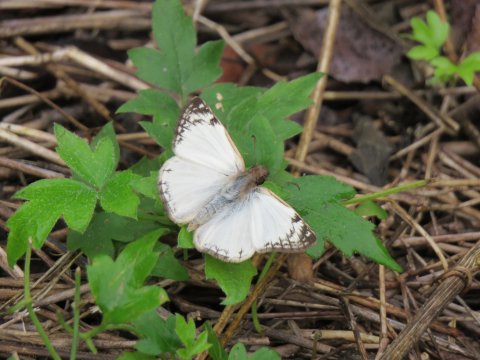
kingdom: Animalia
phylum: Arthropoda
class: Insecta
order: Lepidoptera
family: Hesperiidae
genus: Heliopetes
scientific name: Heliopetes laviana
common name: Laviana White-Skipper
